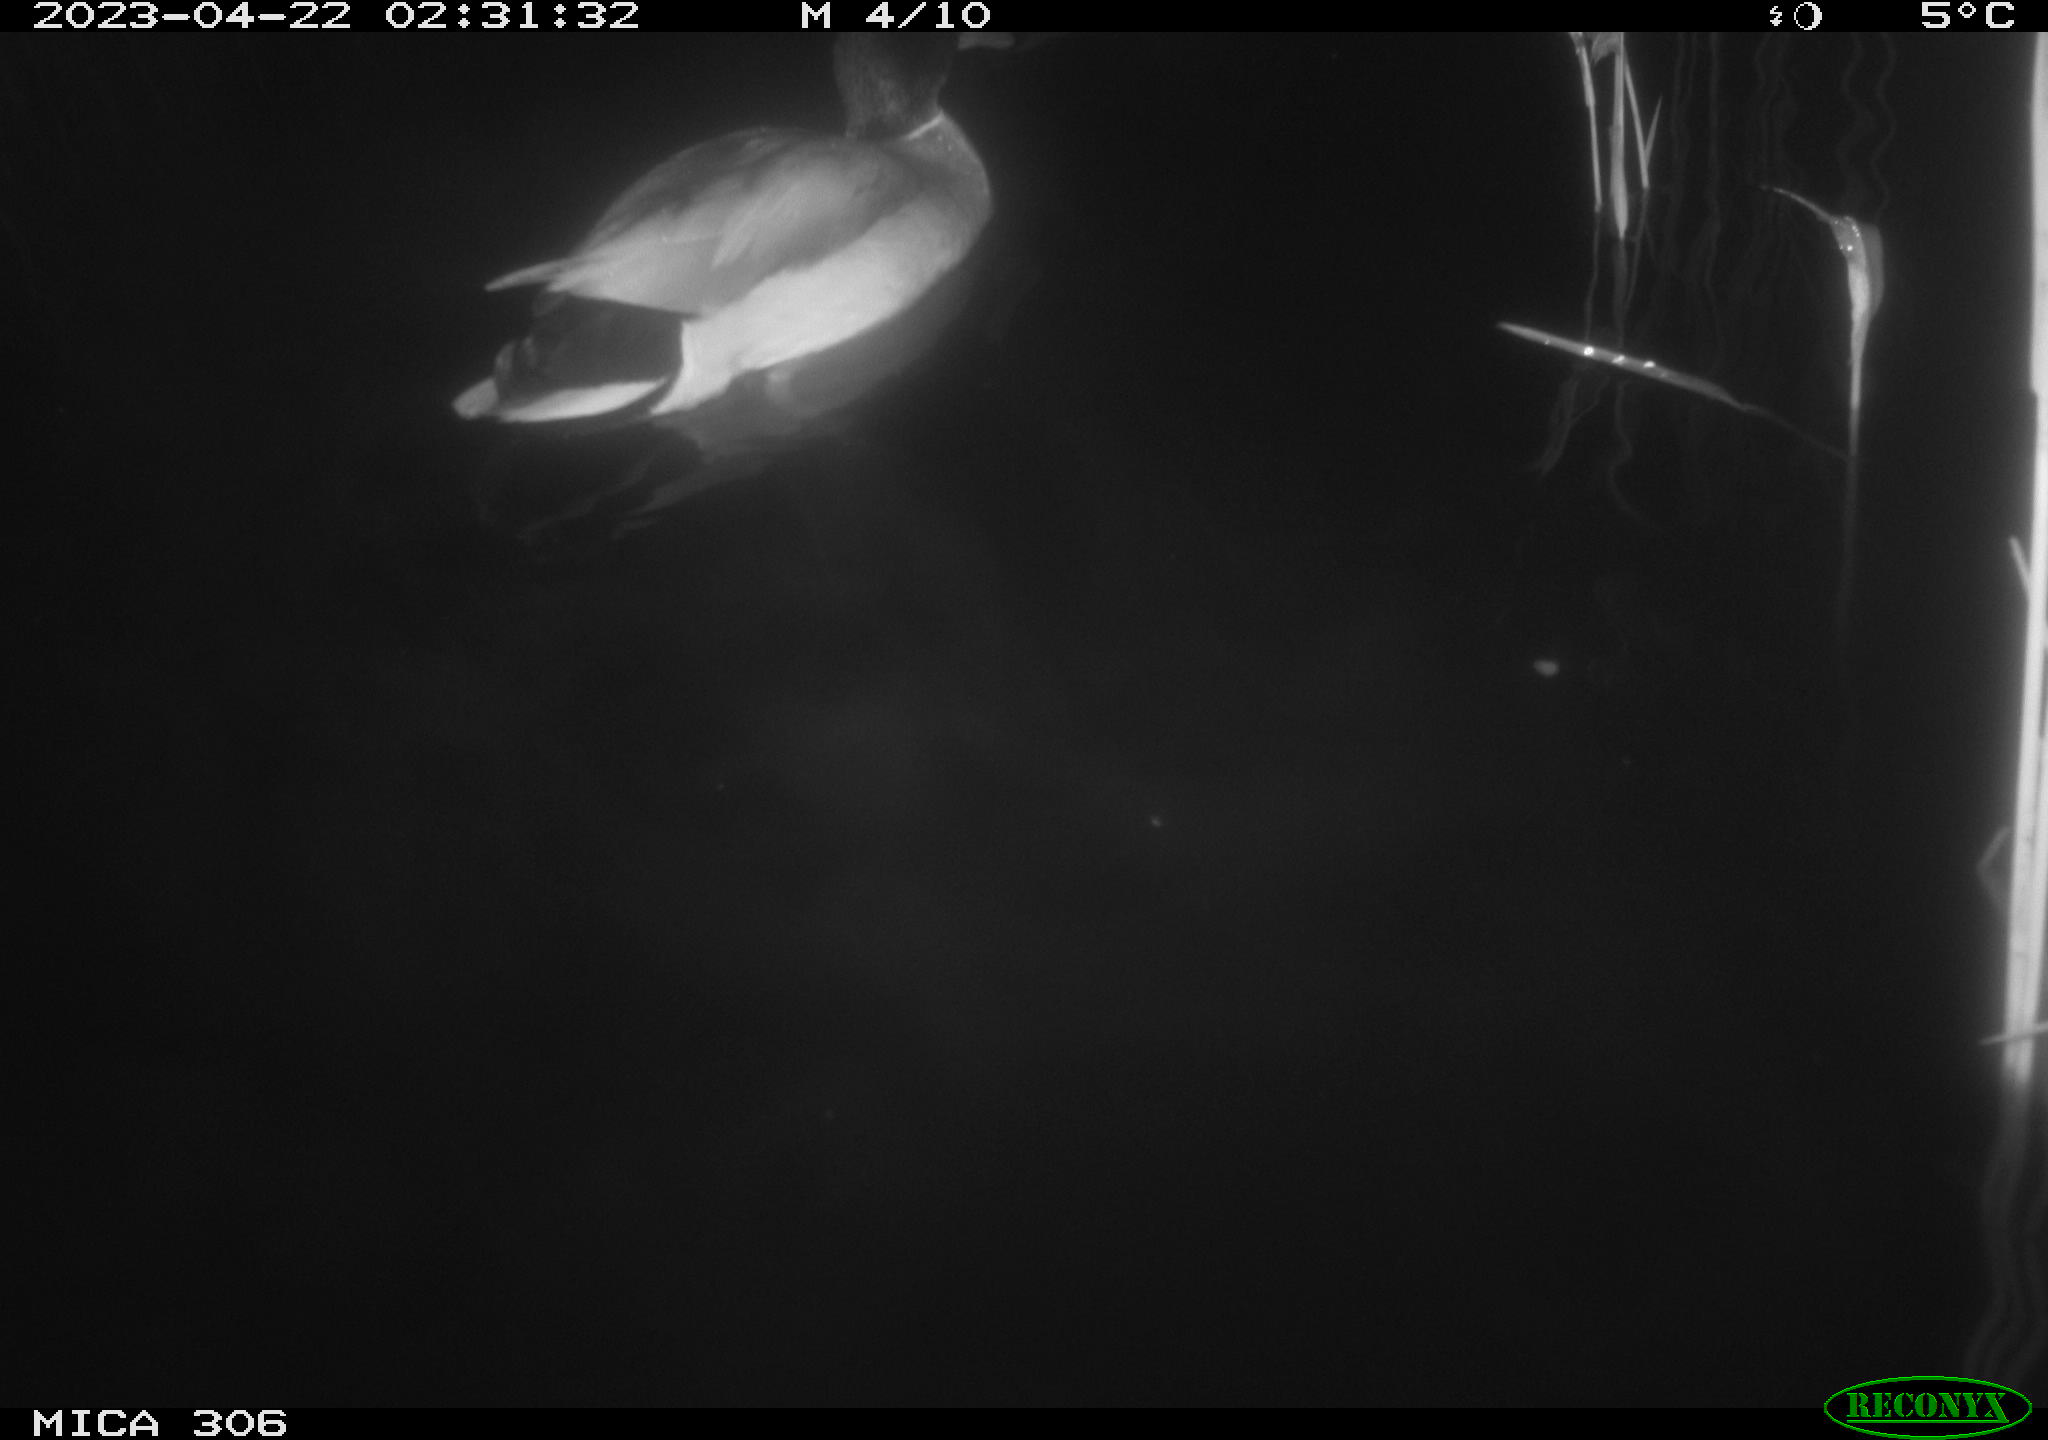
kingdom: Animalia
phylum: Chordata
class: Aves
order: Anseriformes
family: Anatidae
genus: Anas
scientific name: Anas
